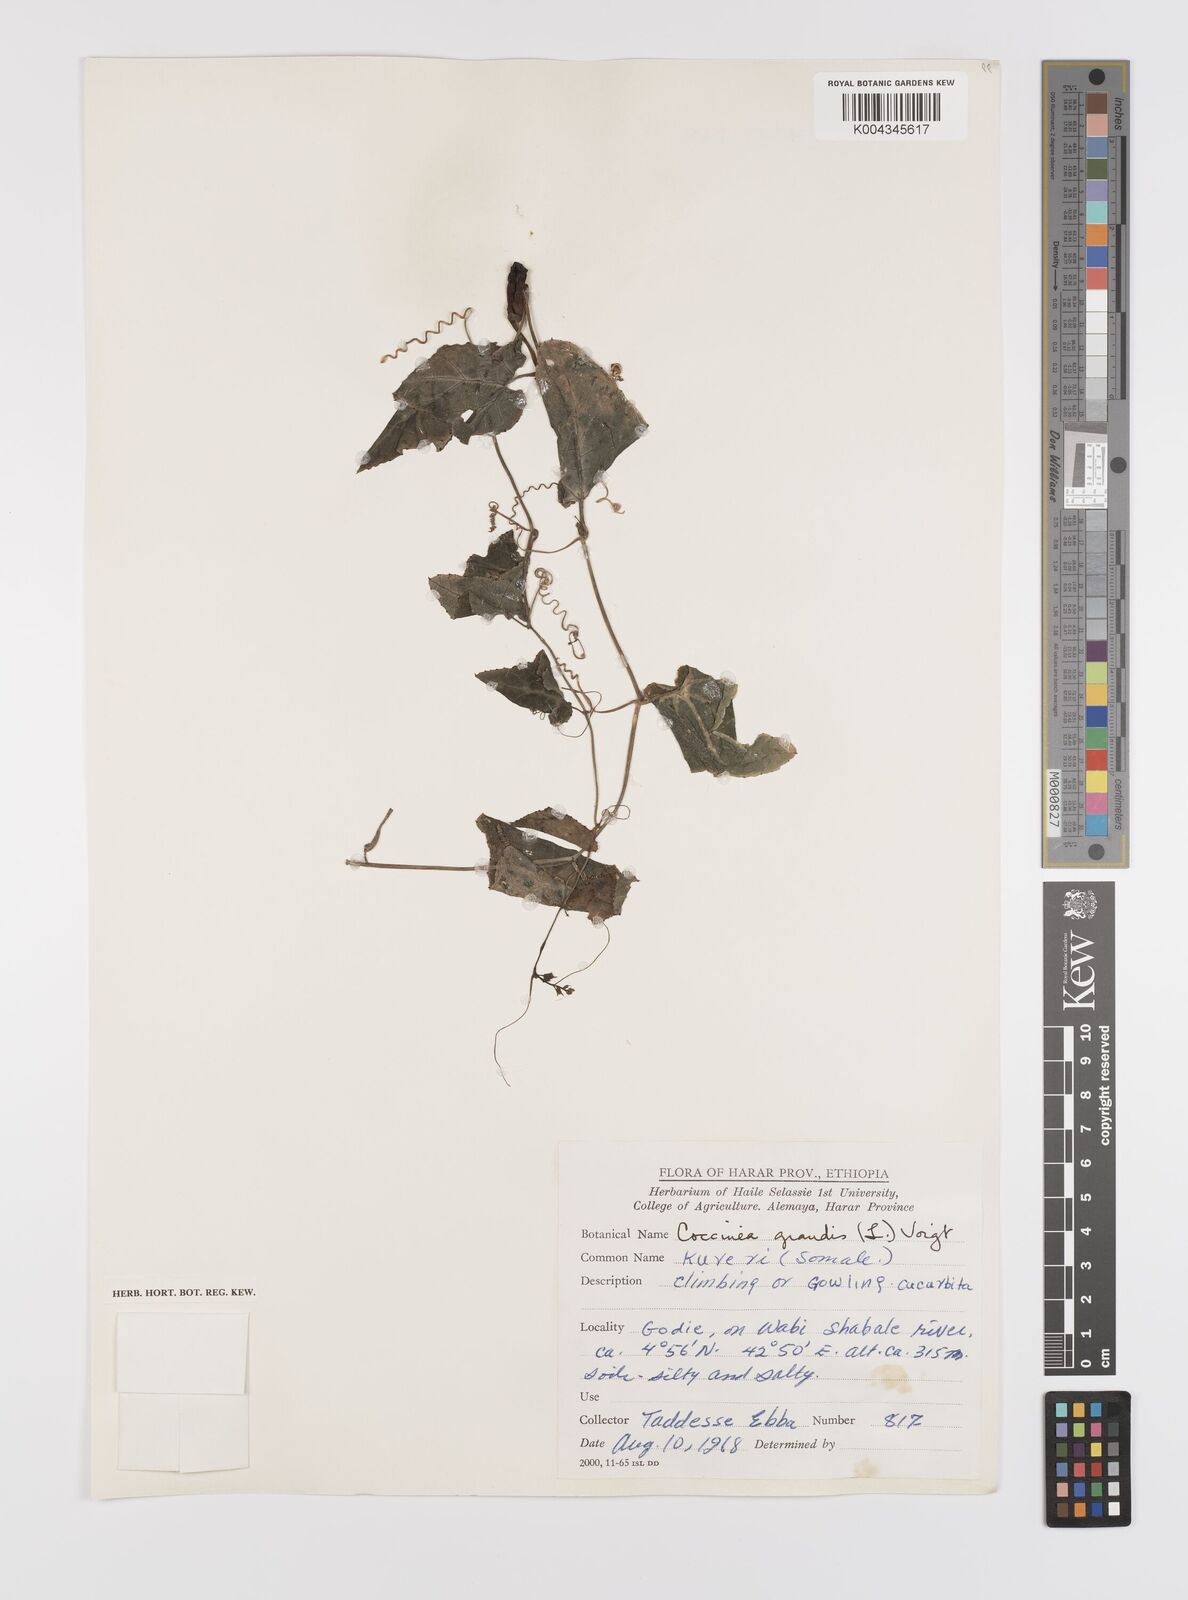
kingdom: Plantae
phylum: Tracheophyta
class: Magnoliopsida
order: Cucurbitales
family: Cucurbitaceae
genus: Coccinia
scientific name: Coccinia grandis
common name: Ivy gourd
